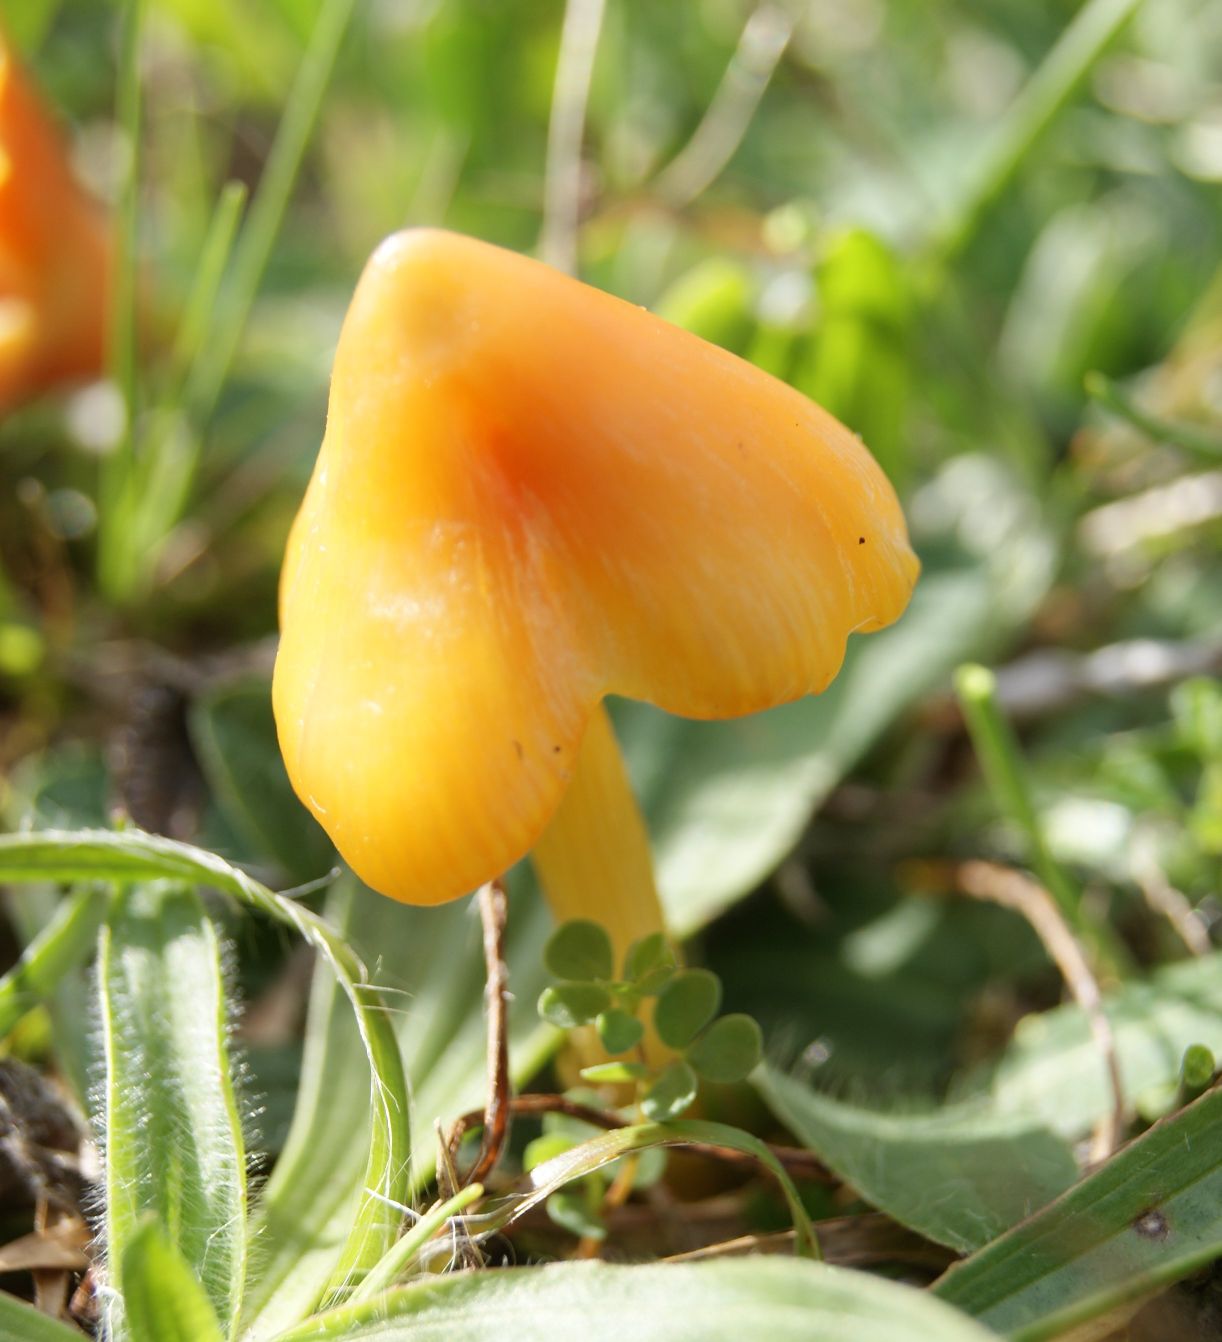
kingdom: Fungi
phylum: Basidiomycota
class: Agaricomycetes
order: Agaricales
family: Hygrophoraceae
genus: Hygrocybe
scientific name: Hygrocybe acutoconica
